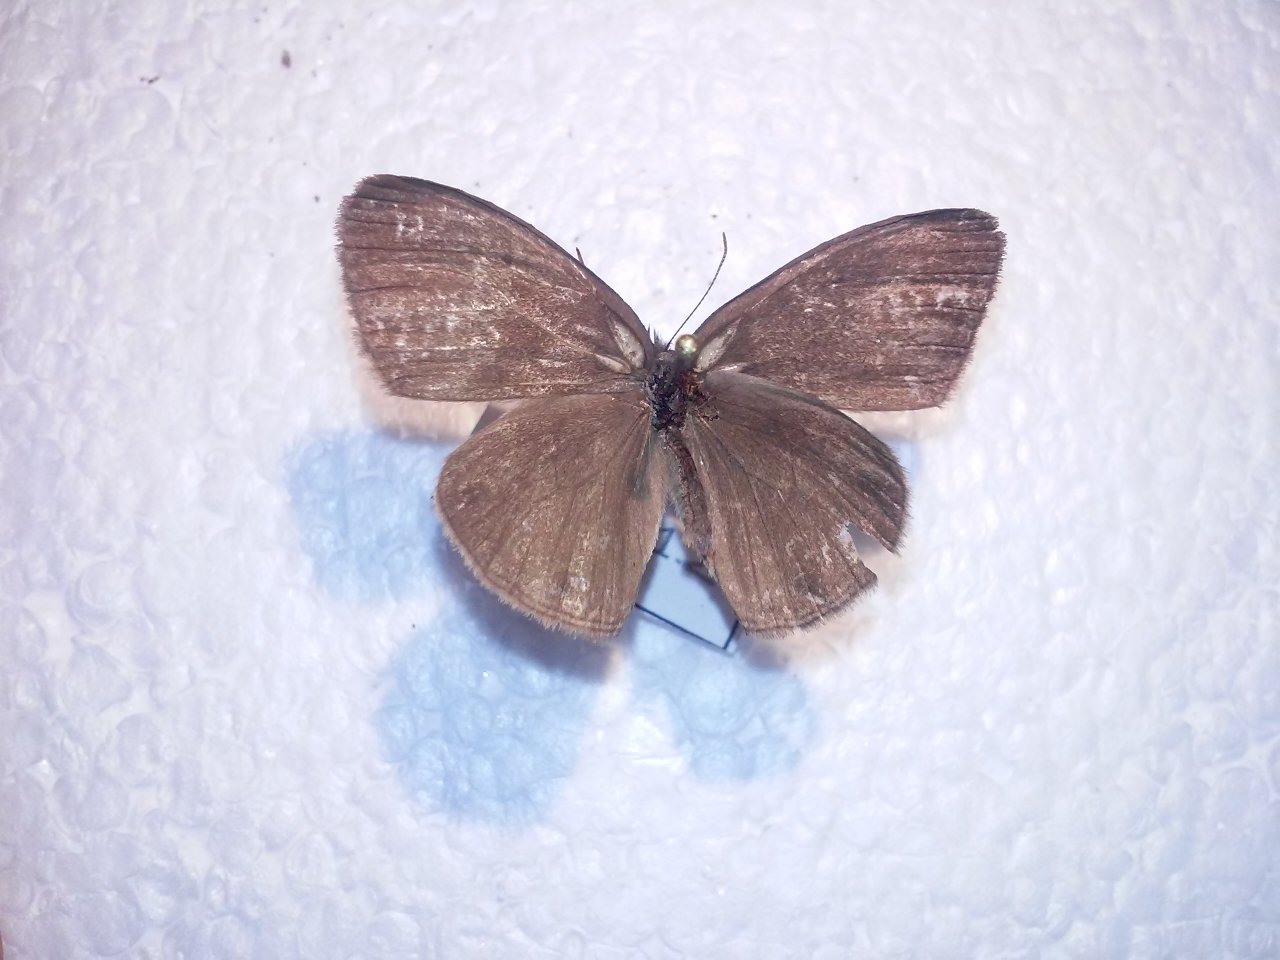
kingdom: Animalia
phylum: Arthropoda
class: Insecta
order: Lepidoptera
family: Nymphalidae
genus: Euptychia
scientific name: Euptychia cymela
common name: Little Wood Satyr
